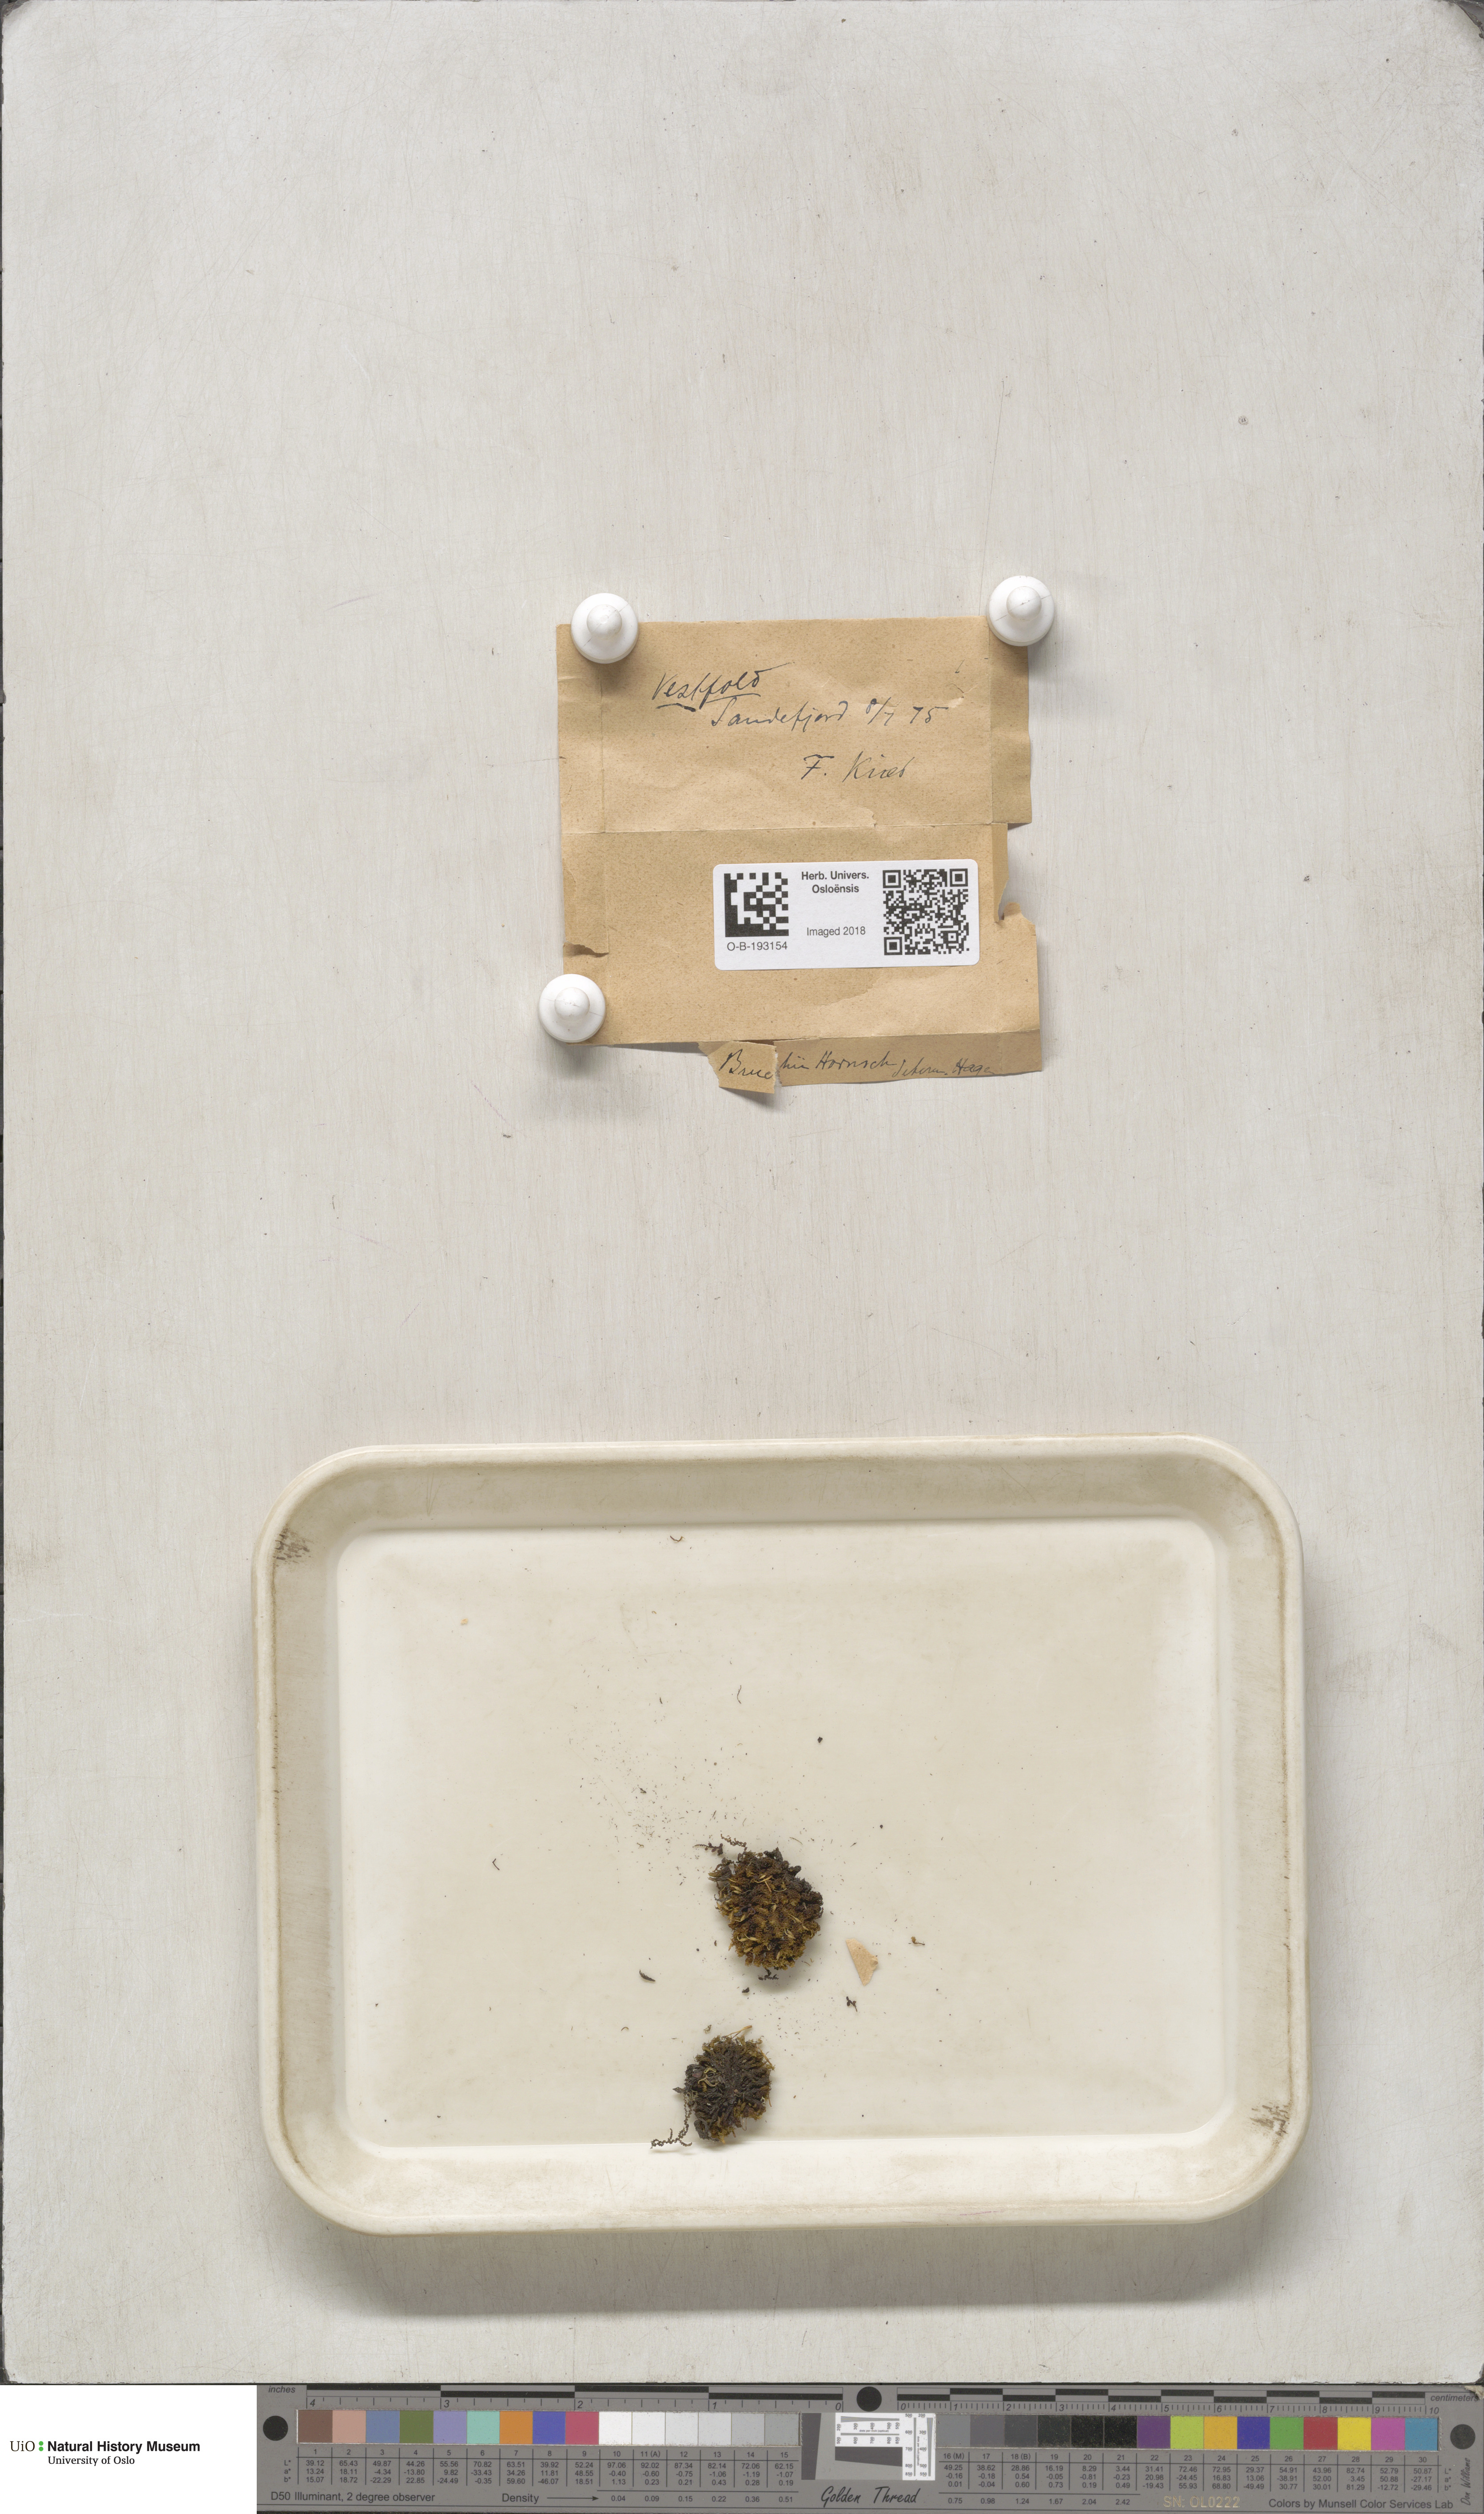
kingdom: Plantae
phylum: Bryophyta
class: Bryopsida
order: Orthotrichales
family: Orthotrichaceae
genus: Ulota
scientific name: Ulota bruchii
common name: Bruch's pincushion
